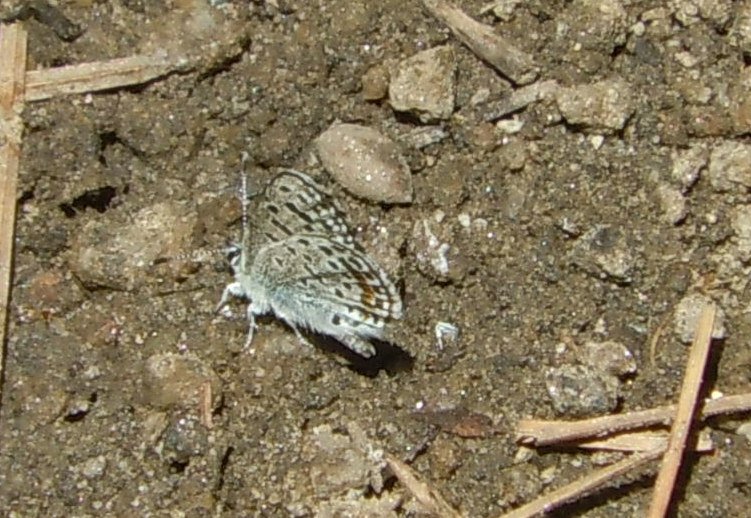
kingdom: Animalia
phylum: Arthropoda
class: Insecta
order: Lepidoptera
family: Lycaenidae
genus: Euphilotes
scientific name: Euphilotes battoides
